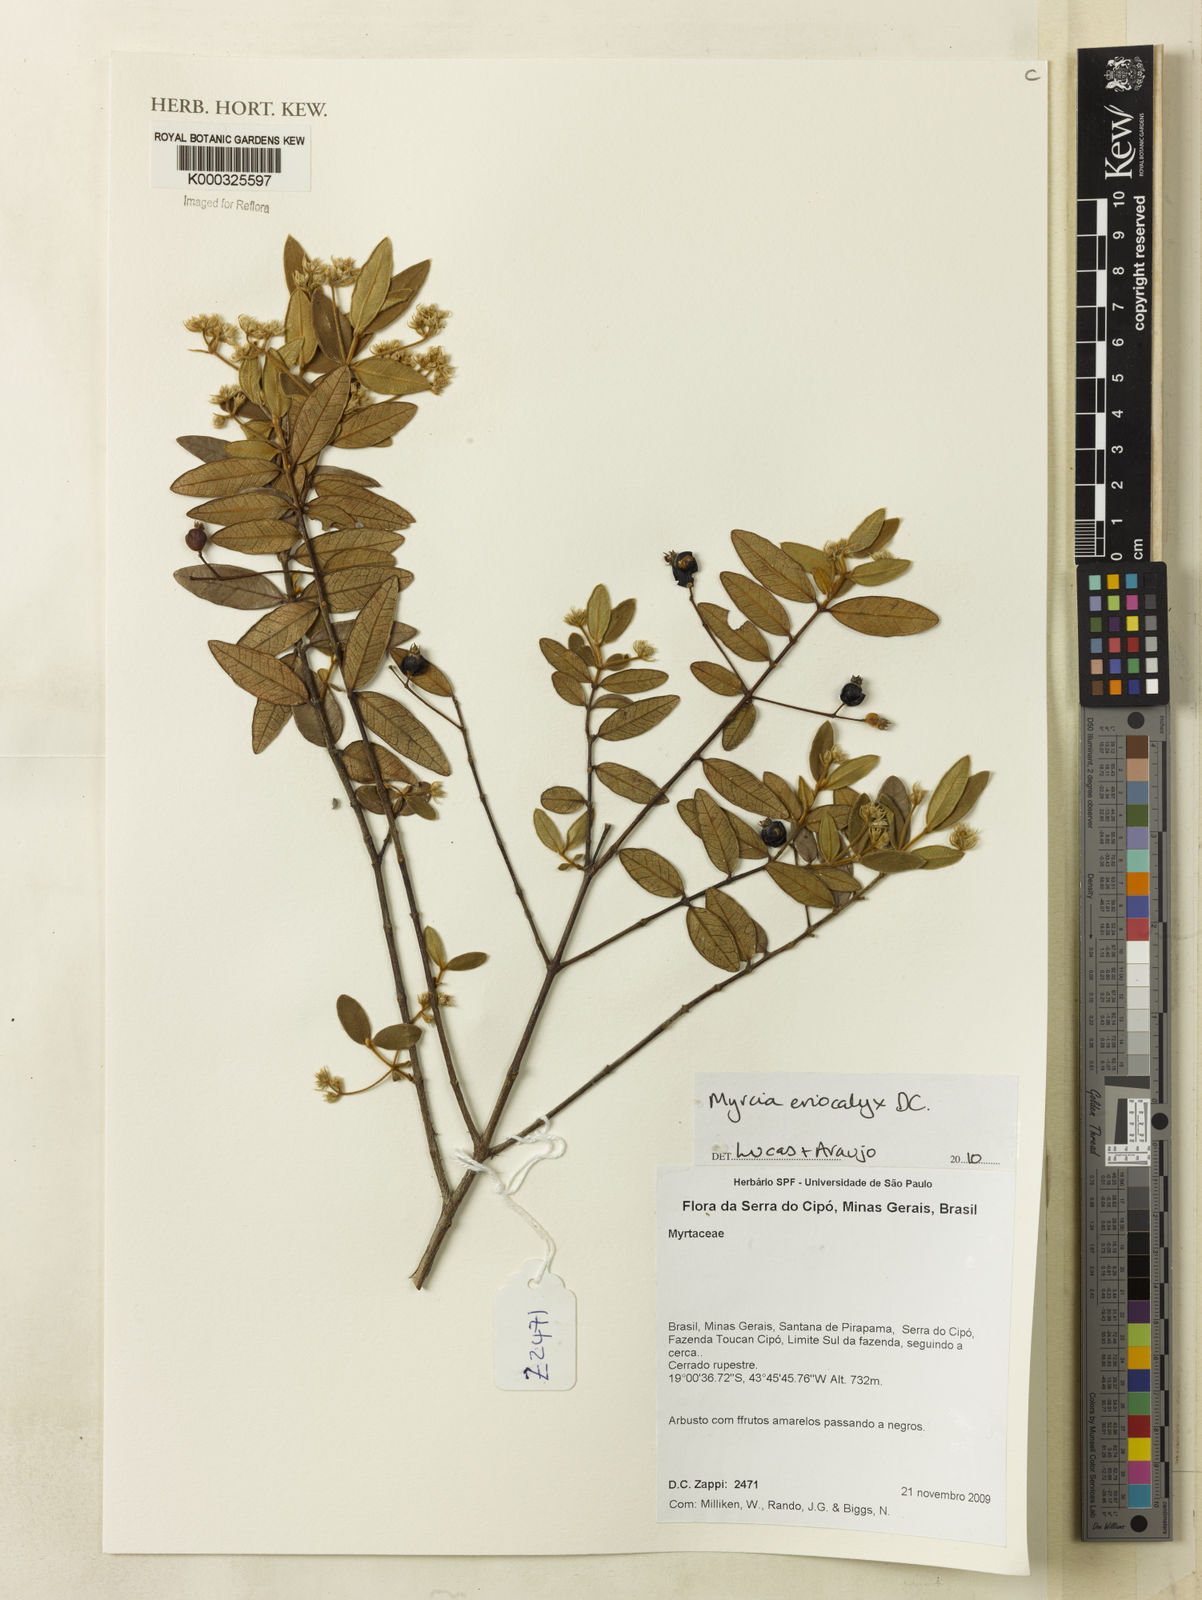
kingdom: Plantae
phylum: Tracheophyta
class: Magnoliopsida
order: Myrtales
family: Myrtaceae
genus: Myrcia
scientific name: Myrcia eriocalyx
